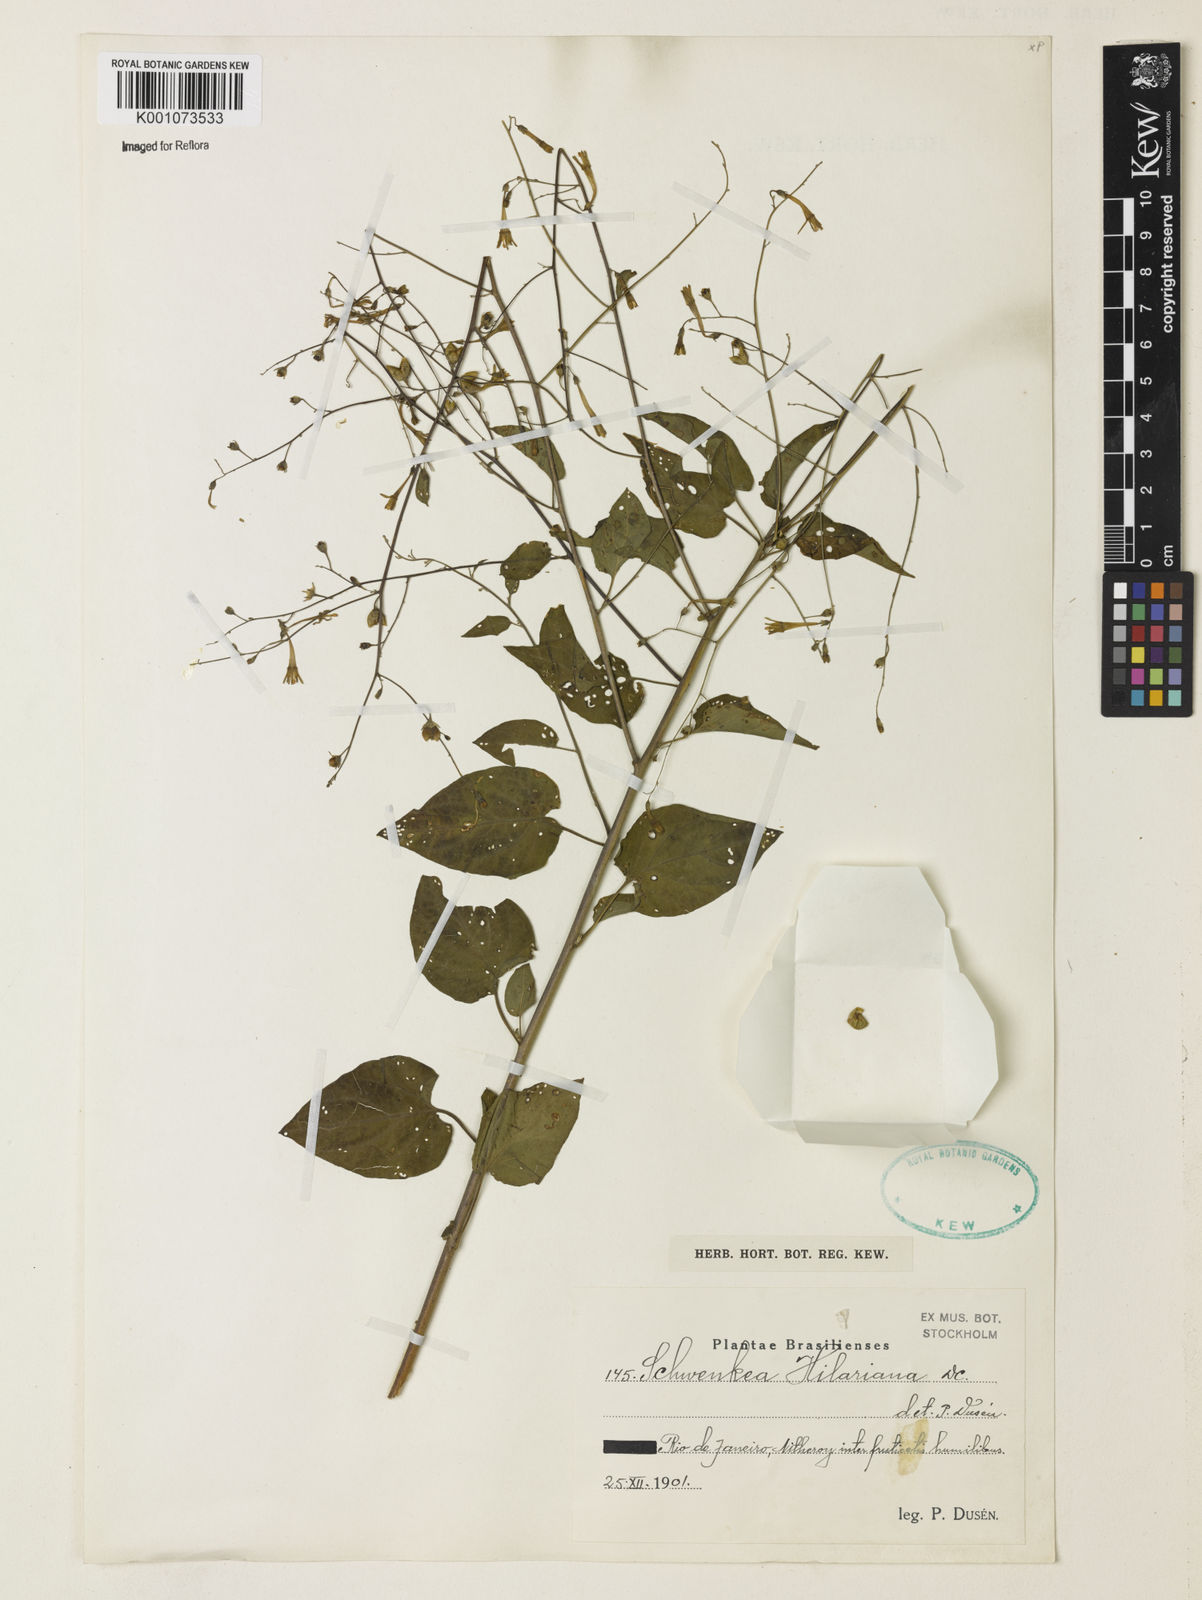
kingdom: Plantae
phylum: Tracheophyta
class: Magnoliopsida
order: Solanales
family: Solanaceae
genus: Schwenckia
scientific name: Schwenckia americana
